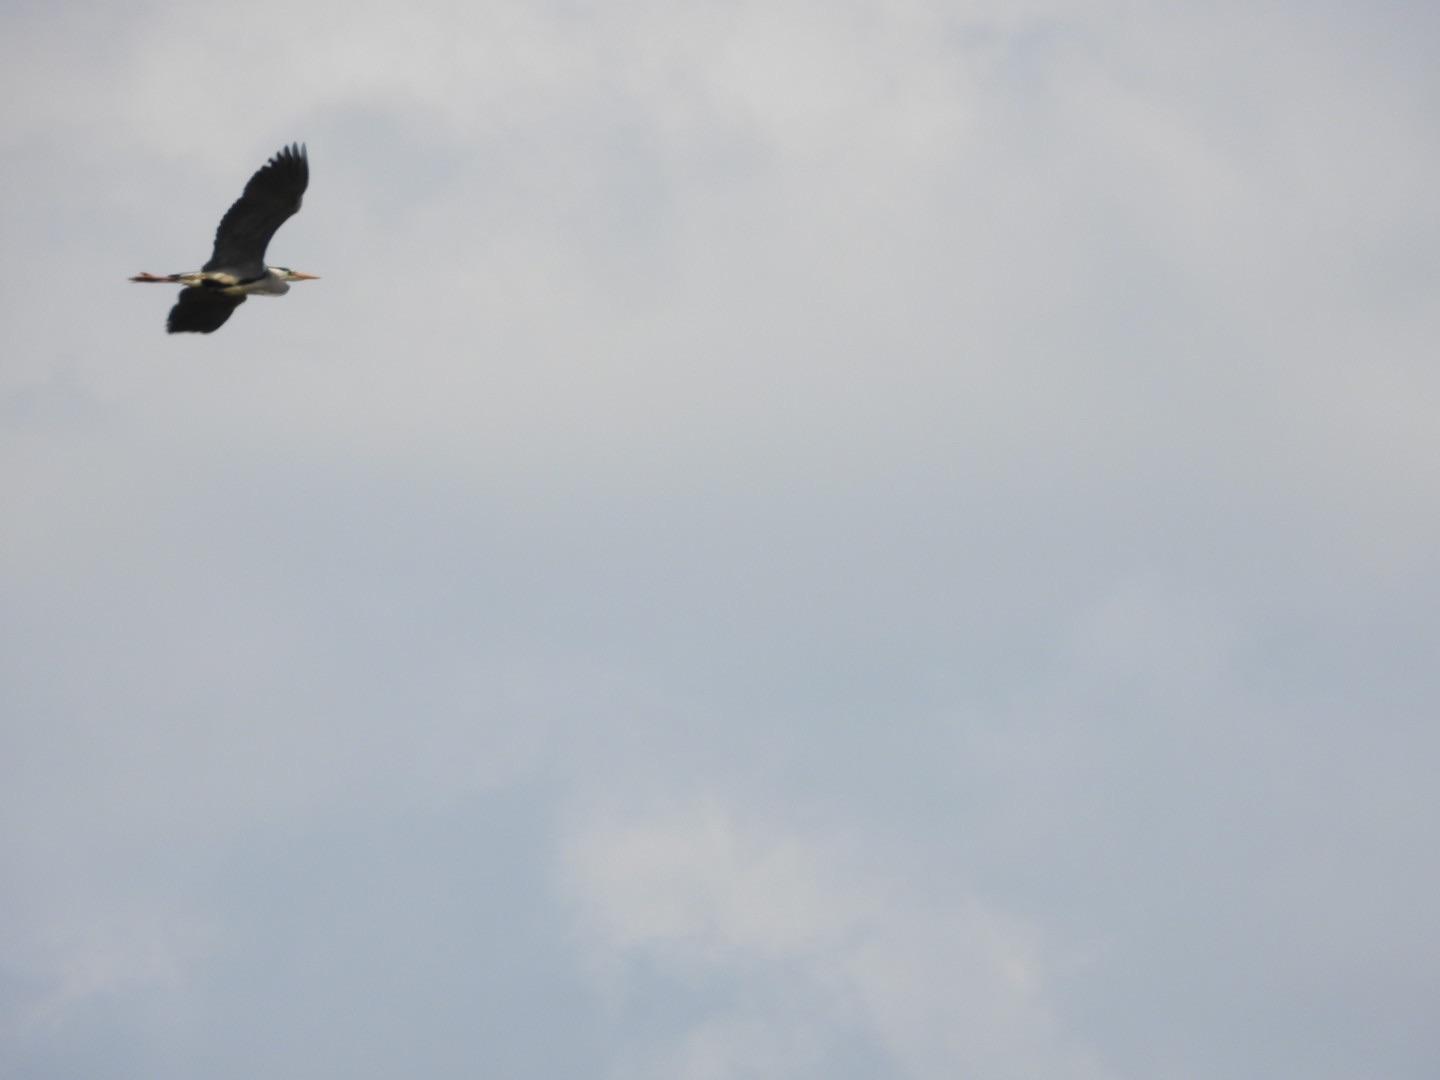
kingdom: Animalia
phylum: Chordata
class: Aves
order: Pelecaniformes
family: Ardeidae
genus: Ardea
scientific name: Ardea cinerea
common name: Fiskehejre
